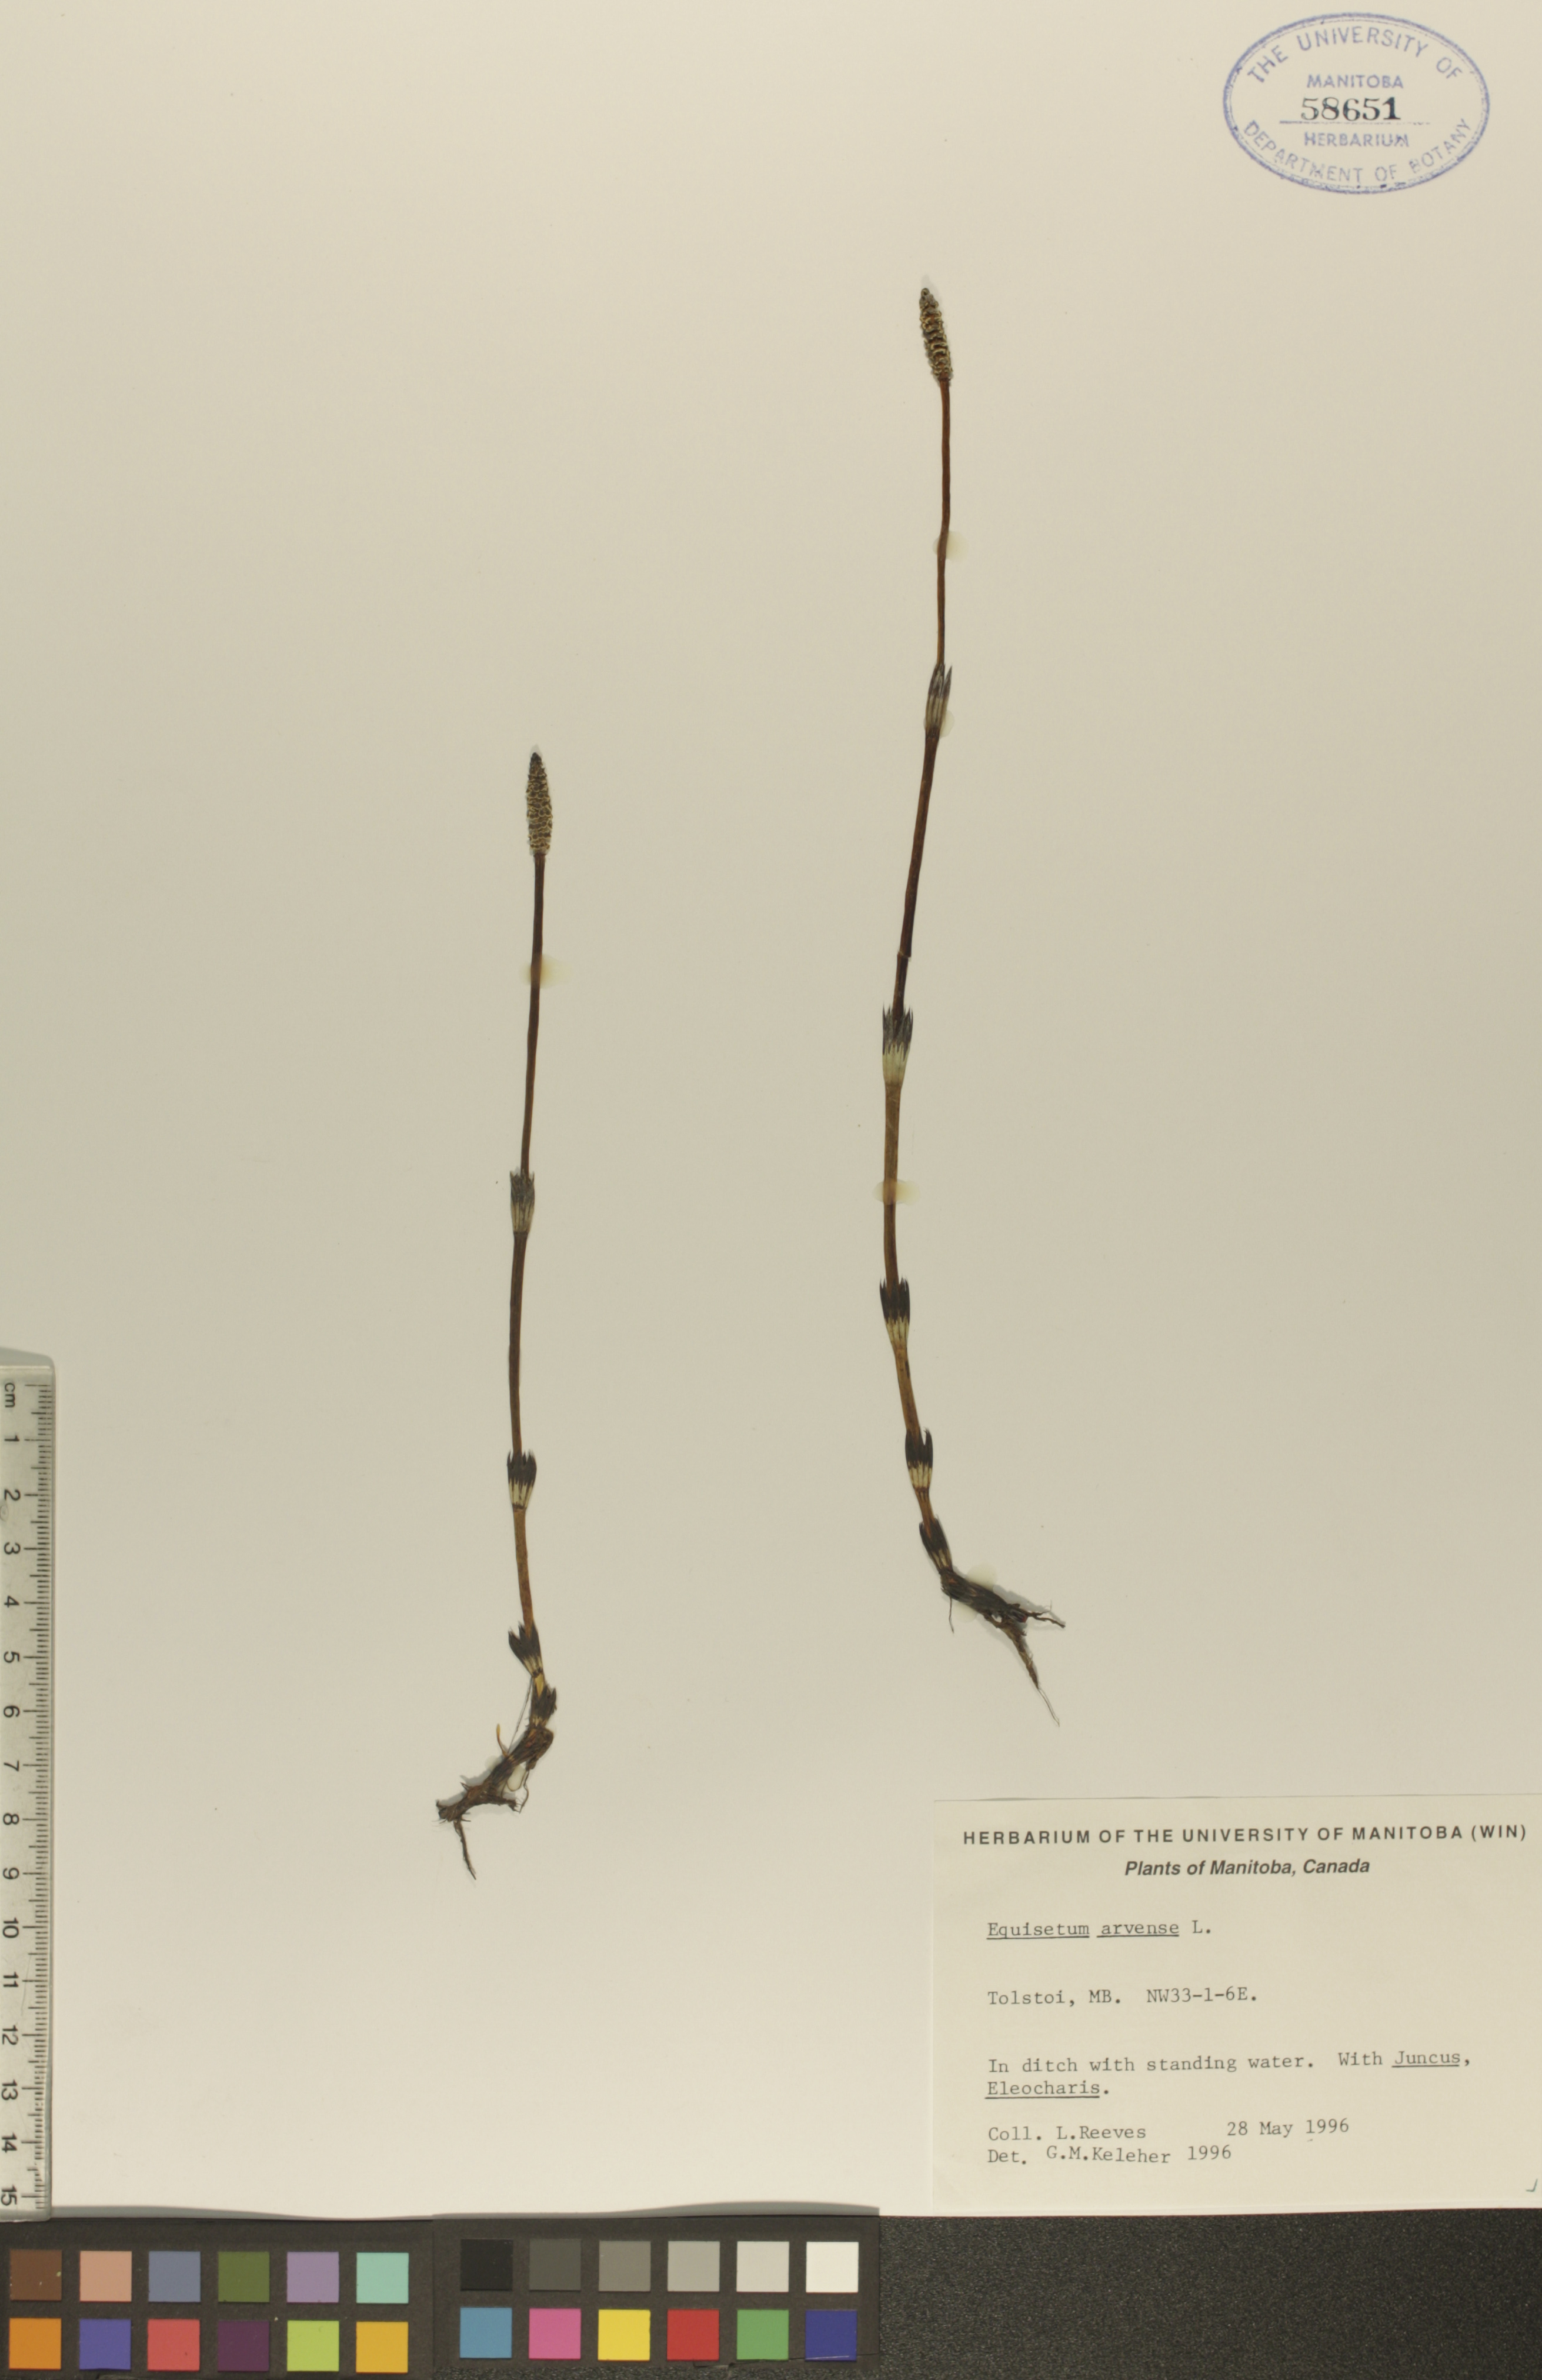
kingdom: Plantae
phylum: Tracheophyta
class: Polypodiopsida
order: Equisetales
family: Equisetaceae
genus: Equisetum
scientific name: Equisetum arvense
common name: Field horsetail
